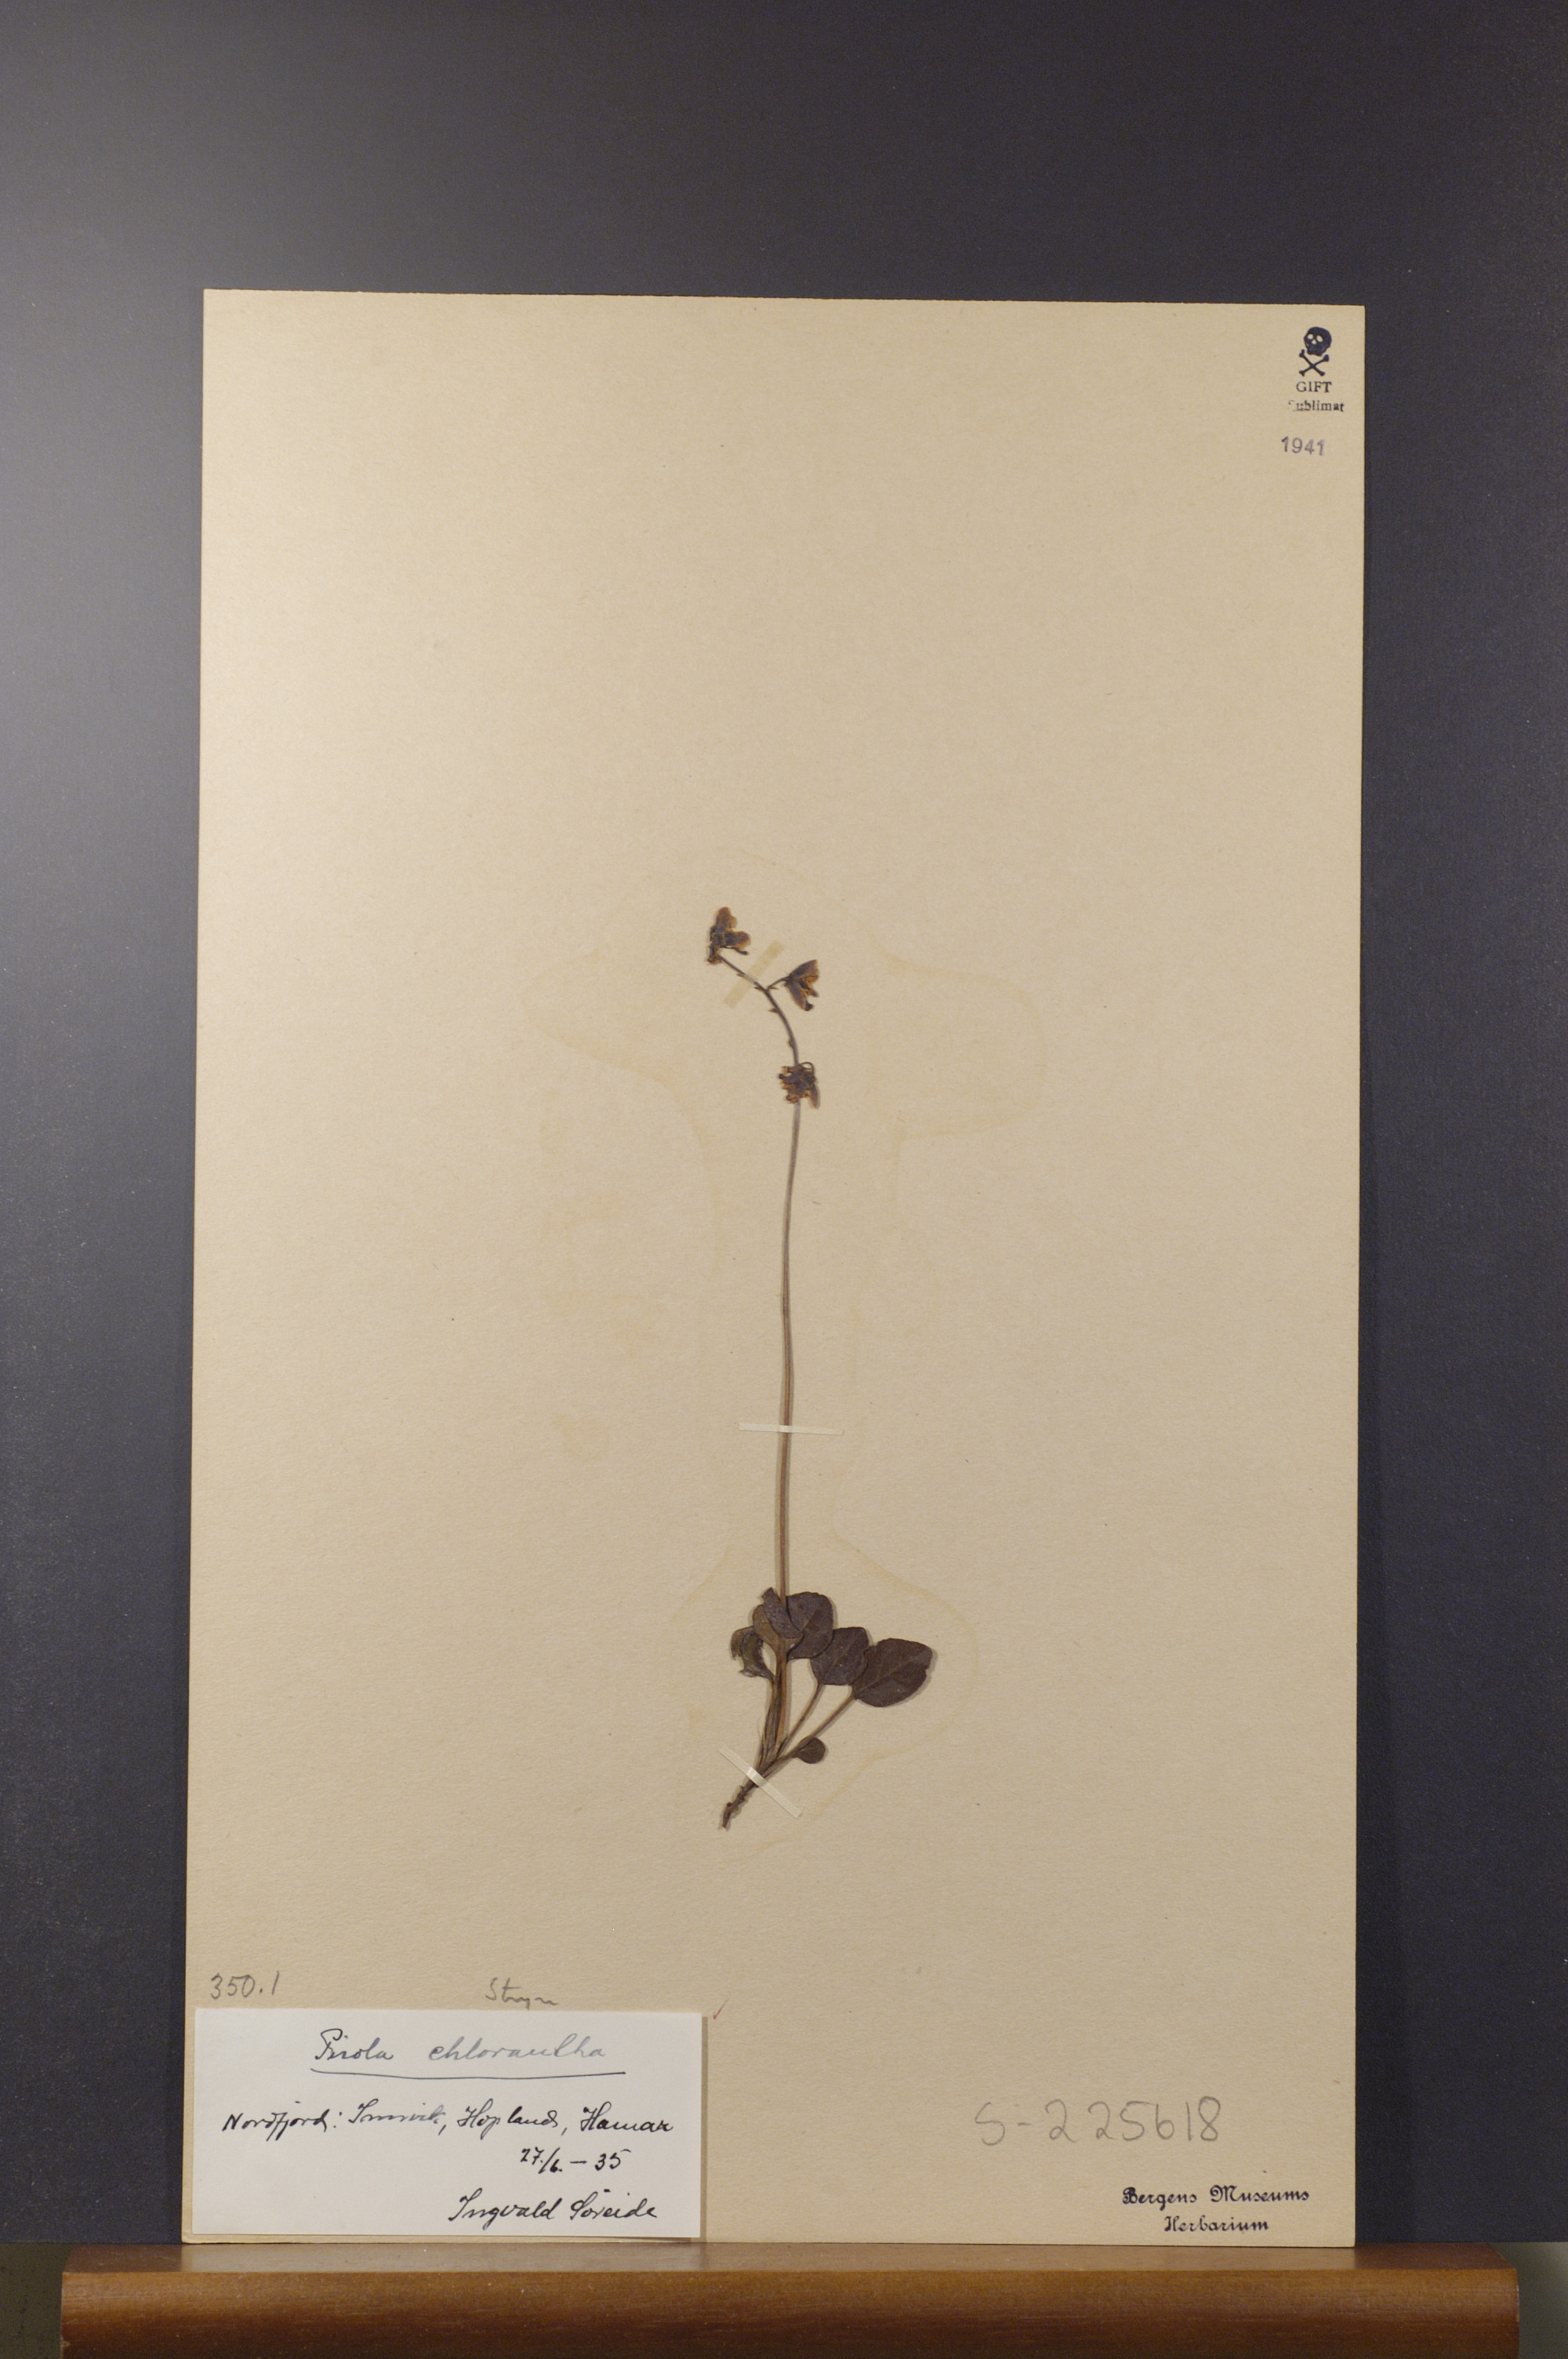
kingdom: Plantae
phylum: Tracheophyta
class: Magnoliopsida
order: Ericales
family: Ericaceae
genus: Pyrola
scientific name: Pyrola chlorantha
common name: Green wintergreen
